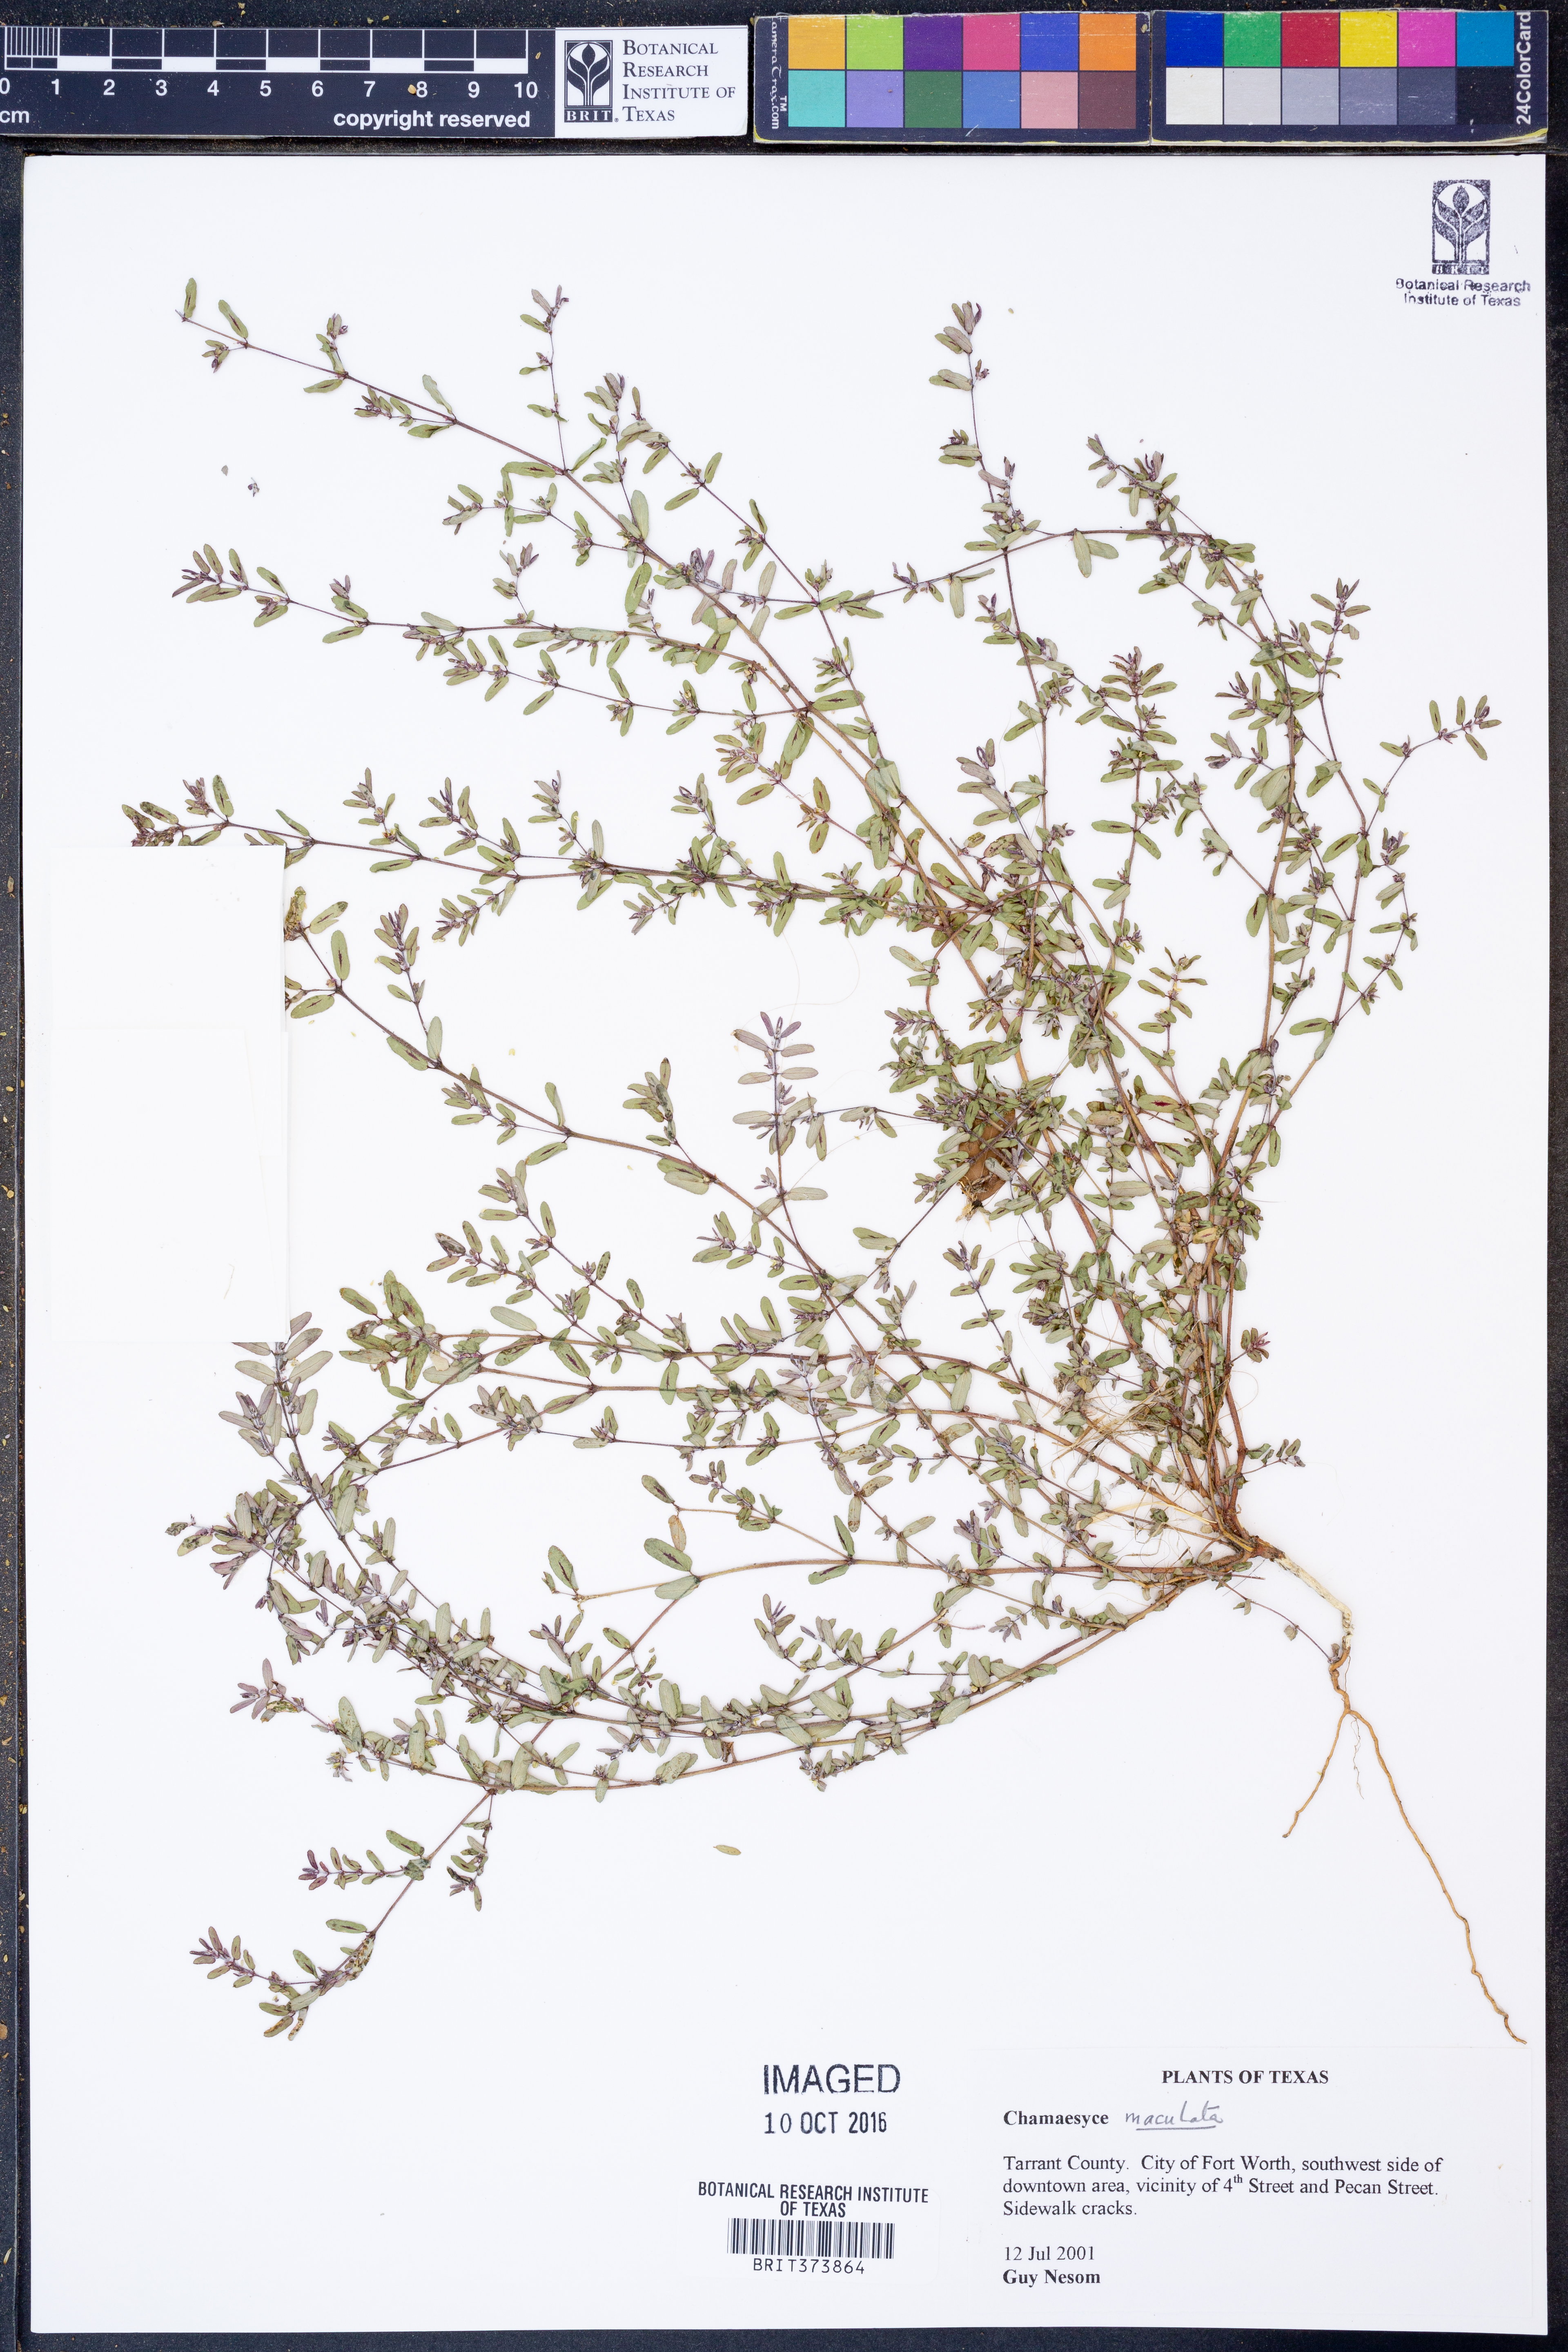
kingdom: Plantae
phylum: Tracheophyta
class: Magnoliopsida
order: Malpighiales
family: Euphorbiaceae
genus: Euphorbia
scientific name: Euphorbia maculata
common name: Spotted spurge
